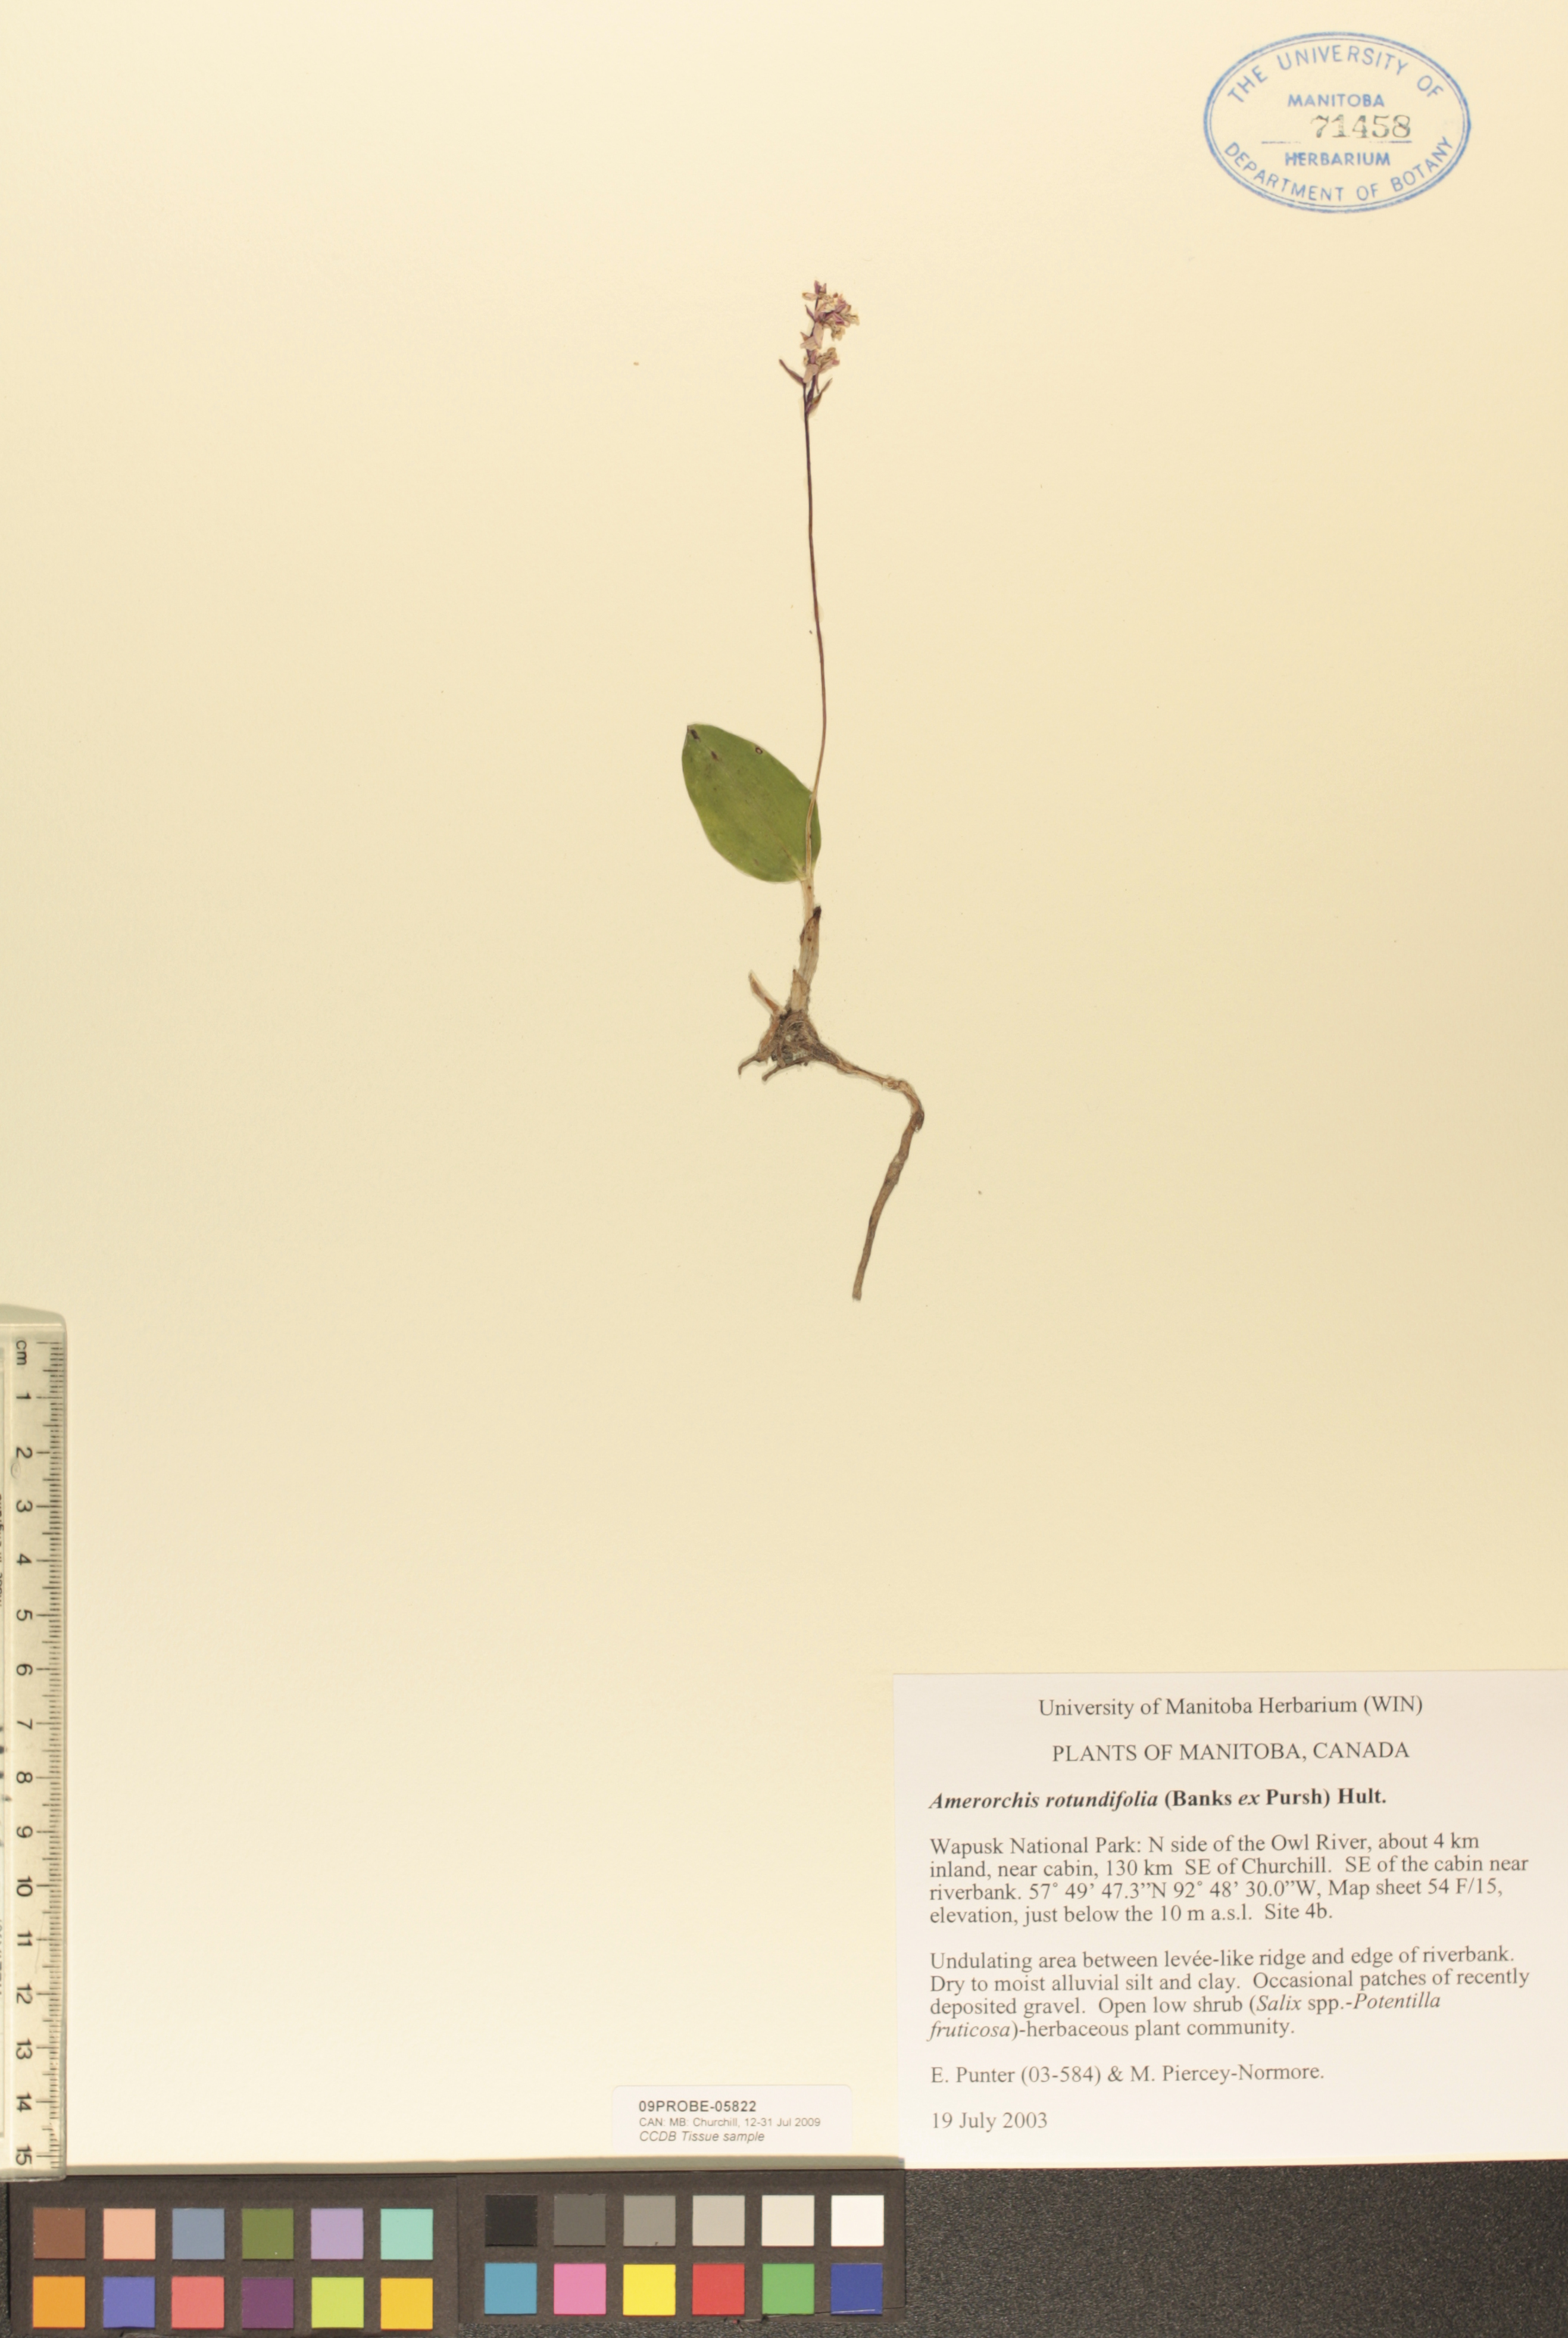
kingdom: Plantae
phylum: Tracheophyta
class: Liliopsida
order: Asparagales
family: Orchidaceae
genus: Galearis
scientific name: Galearis rotundifolia
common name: One-leaved orchis
